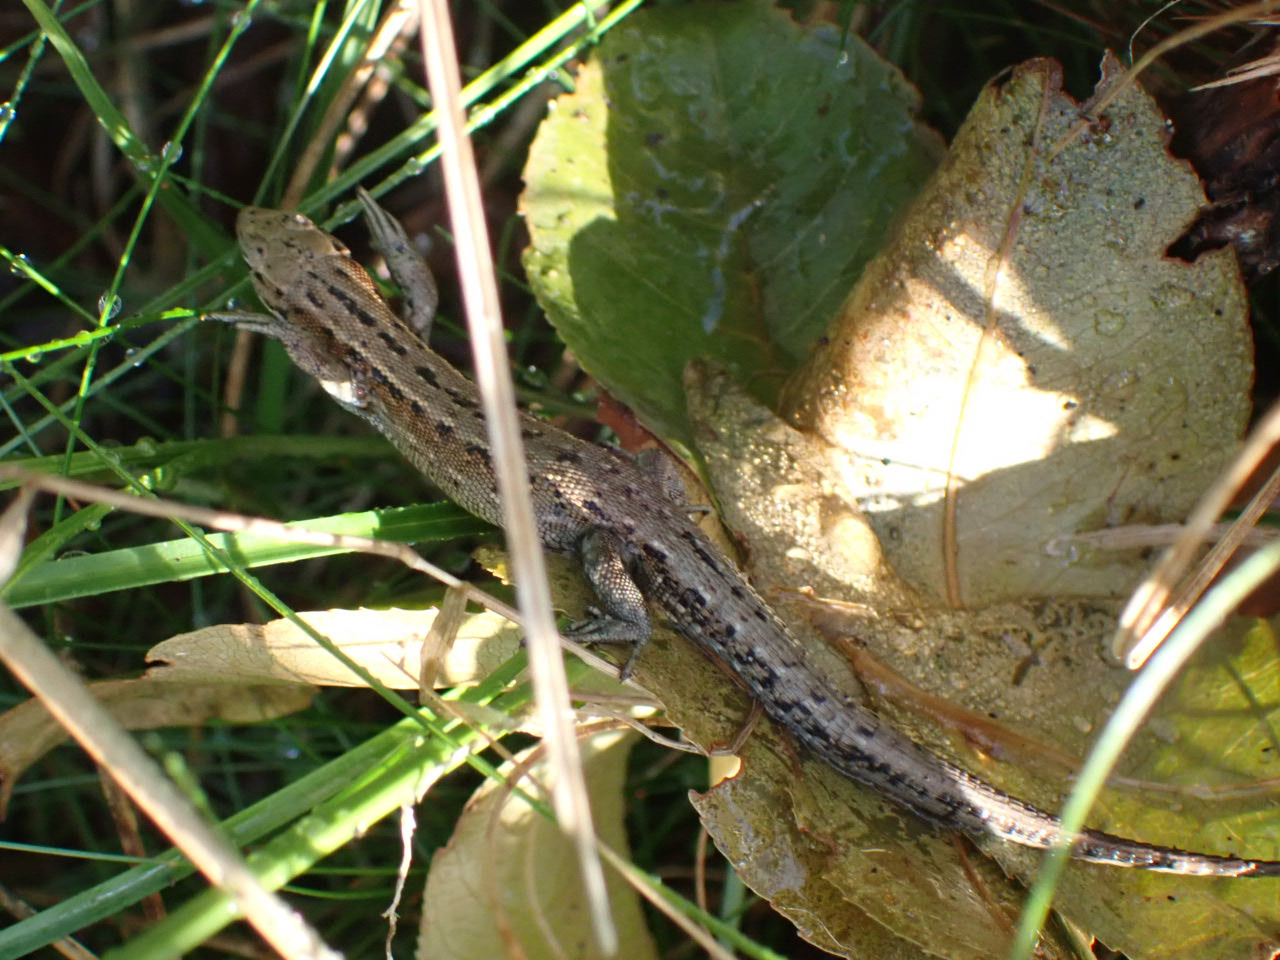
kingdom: Animalia
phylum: Chordata
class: Squamata
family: Lacertidae
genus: Zootoca
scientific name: Zootoca vivipara
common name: Skovfirben
